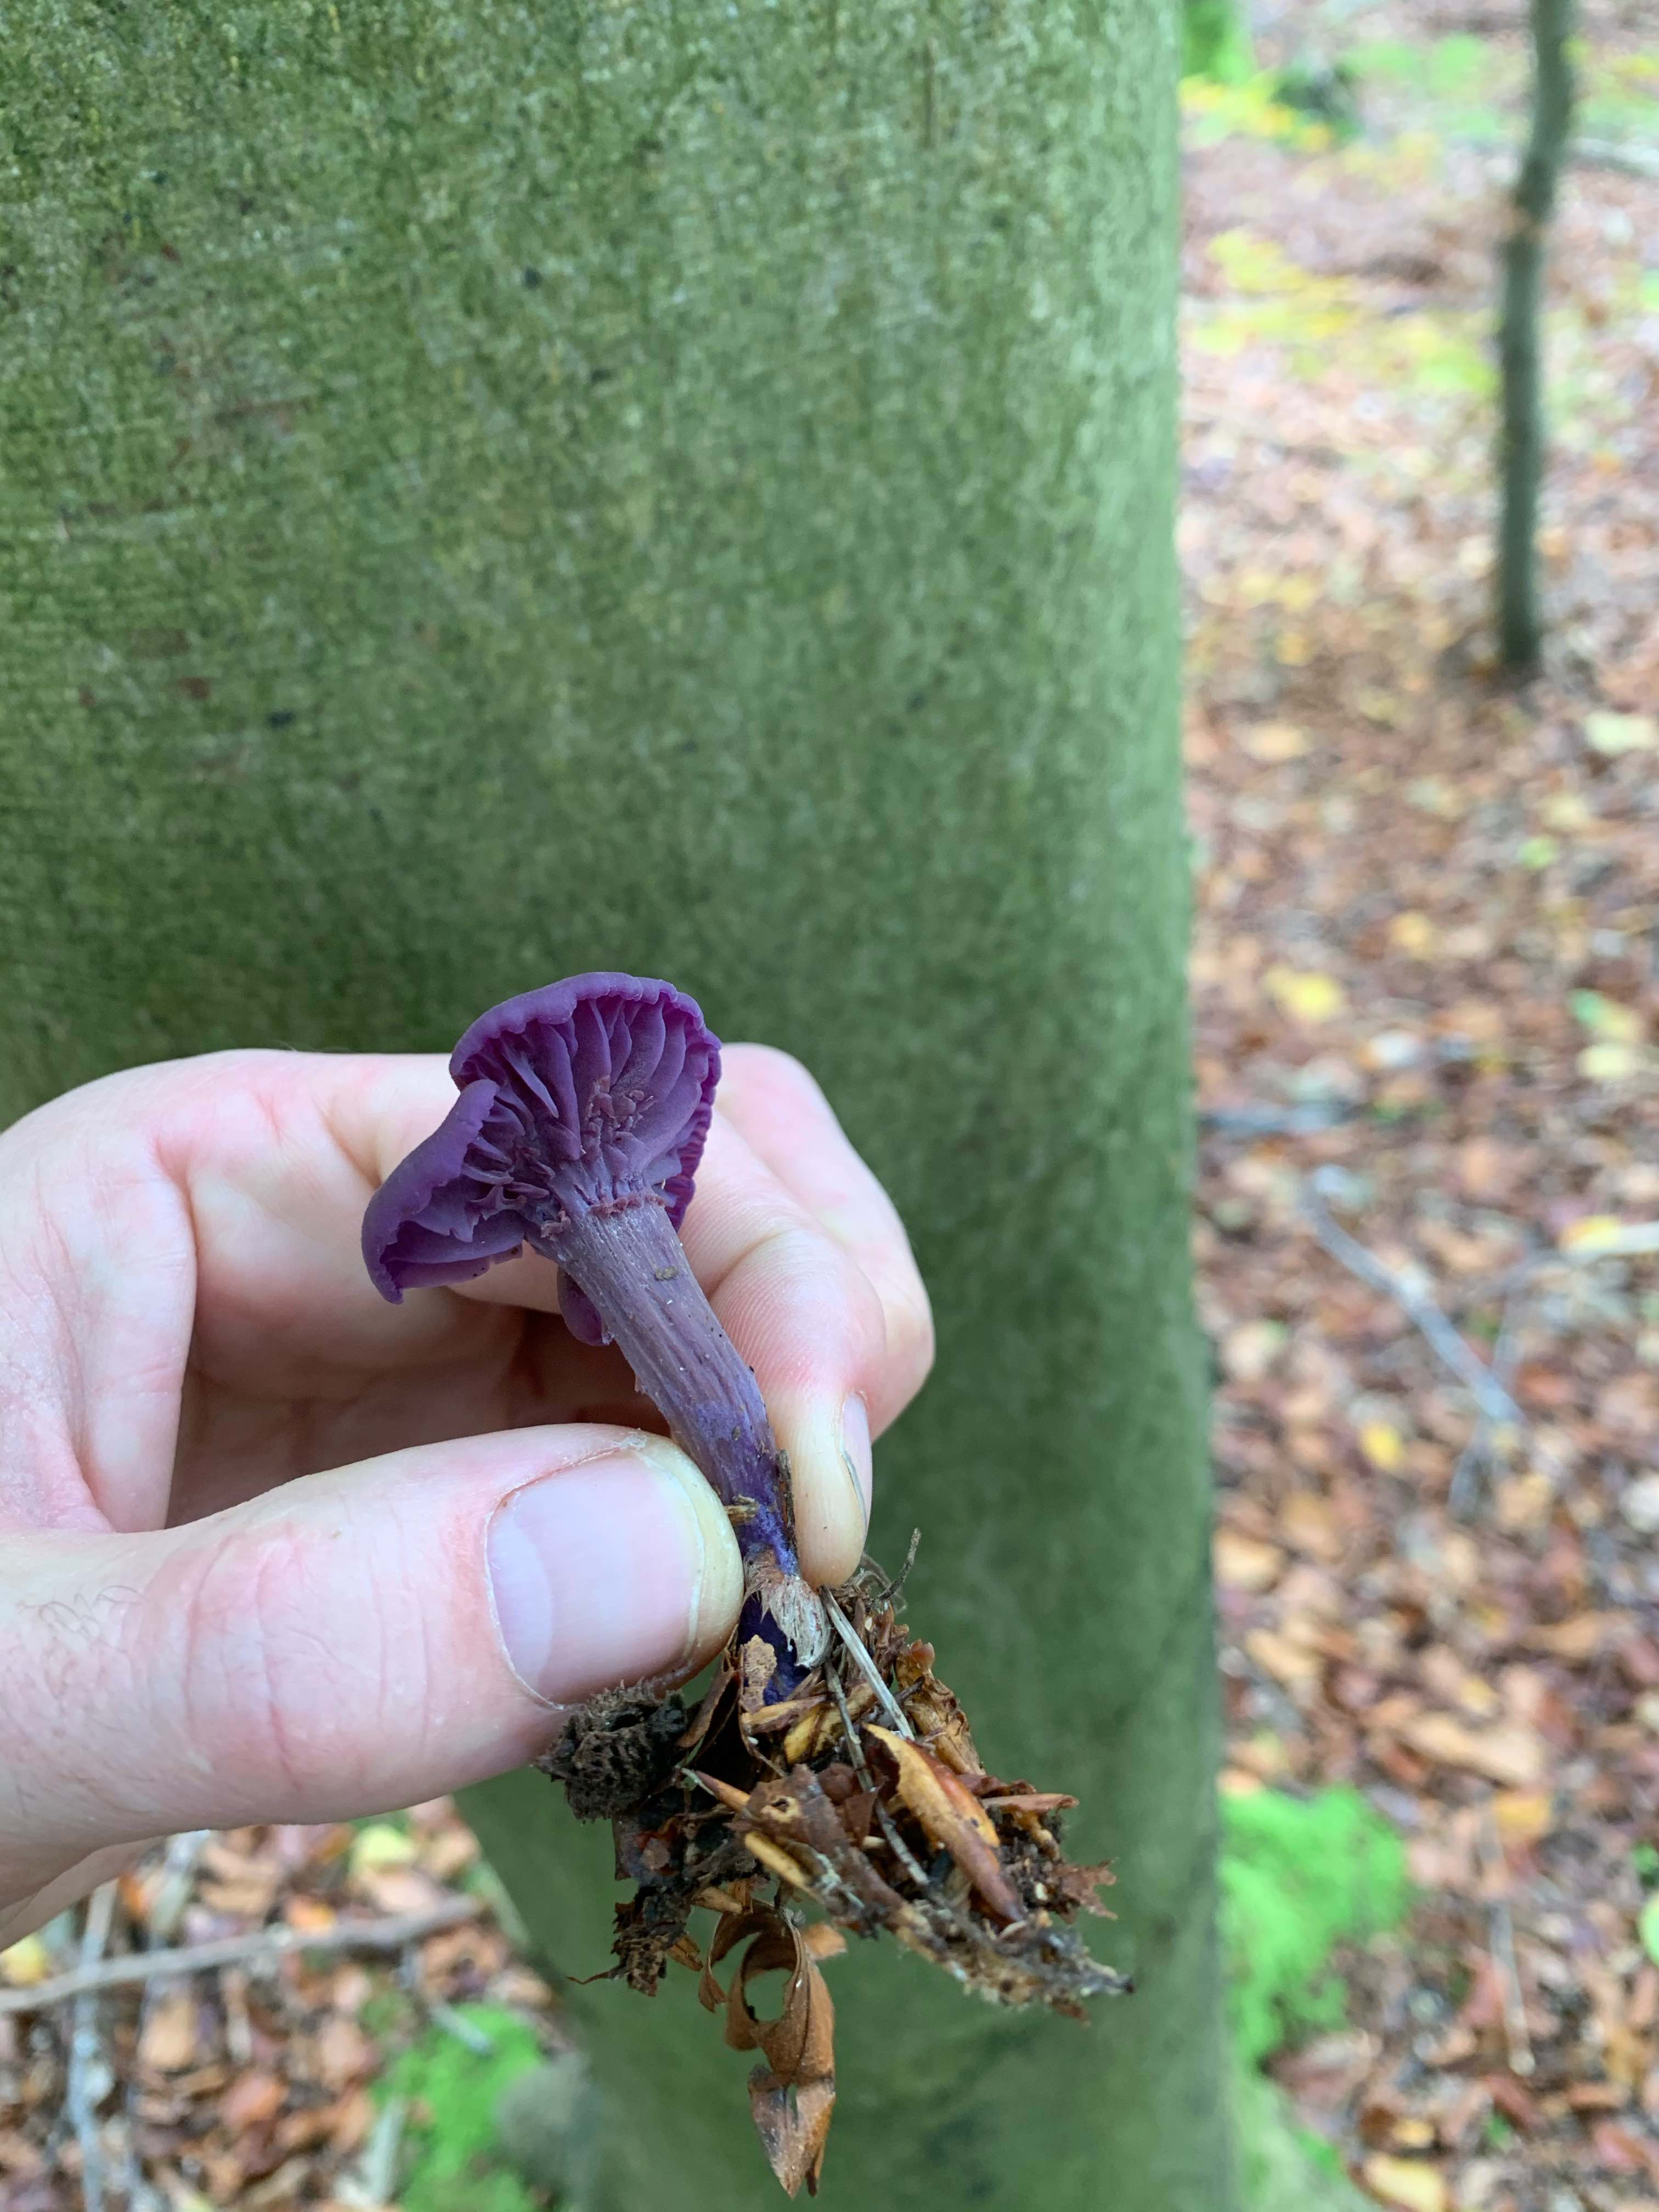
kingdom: Fungi
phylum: Basidiomycota
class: Agaricomycetes
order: Agaricales
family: Hydnangiaceae
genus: Laccaria
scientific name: Laccaria amethystina
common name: violet ametysthat
